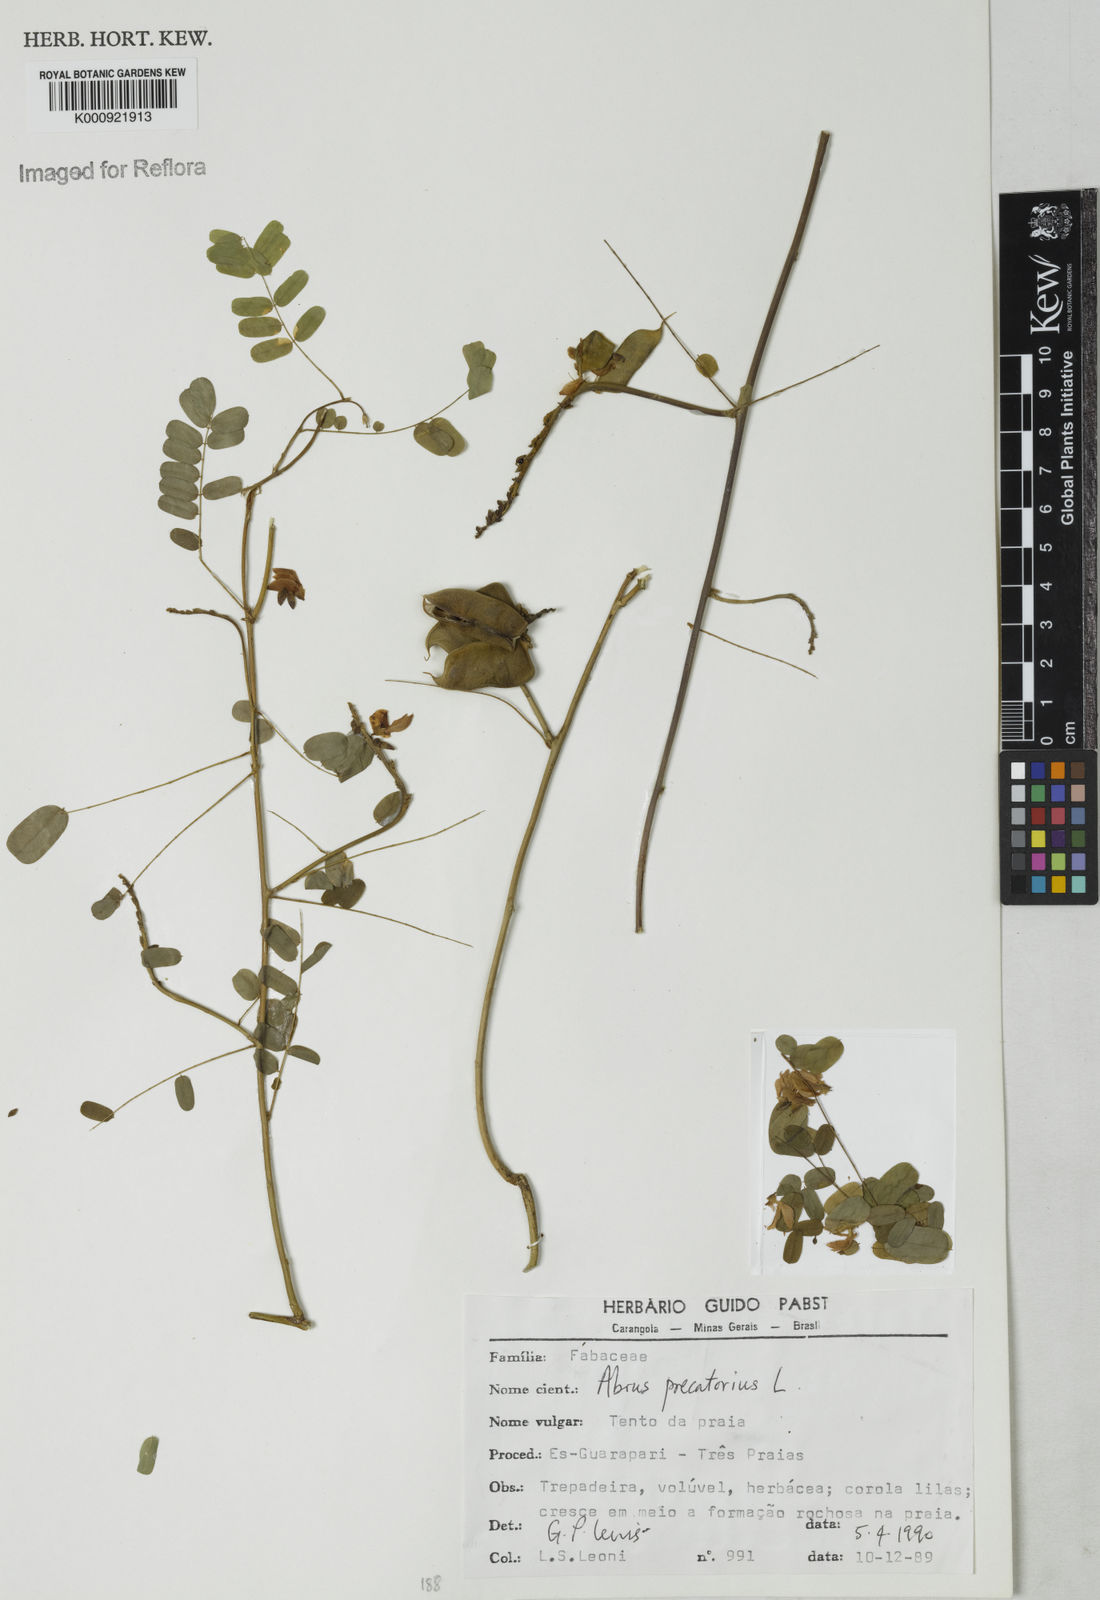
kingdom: Plantae
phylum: Tracheophyta
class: Magnoliopsida
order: Fabales
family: Fabaceae
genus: Abrus
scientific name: Abrus precatorius
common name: Rosarypea
